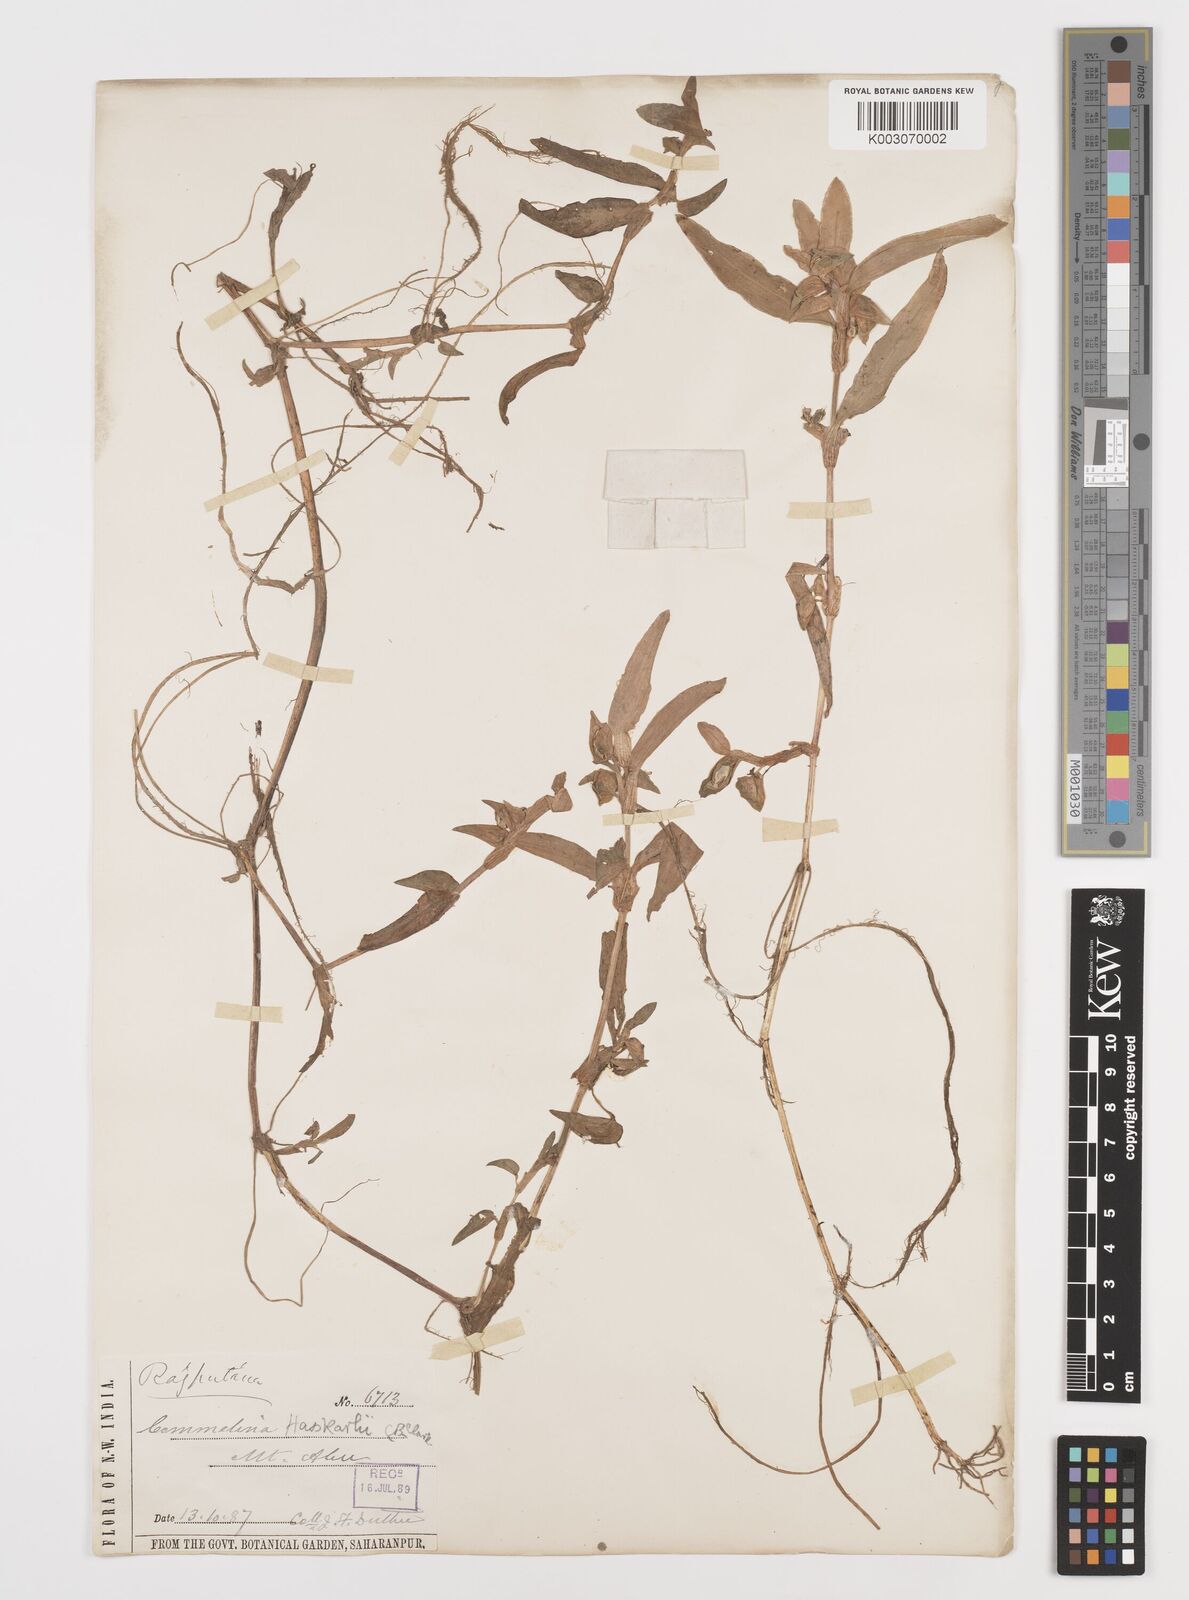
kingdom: Plantae
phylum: Tracheophyta
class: Liliopsida
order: Commelinales
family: Commelinaceae
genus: Commelina
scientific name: Commelina
